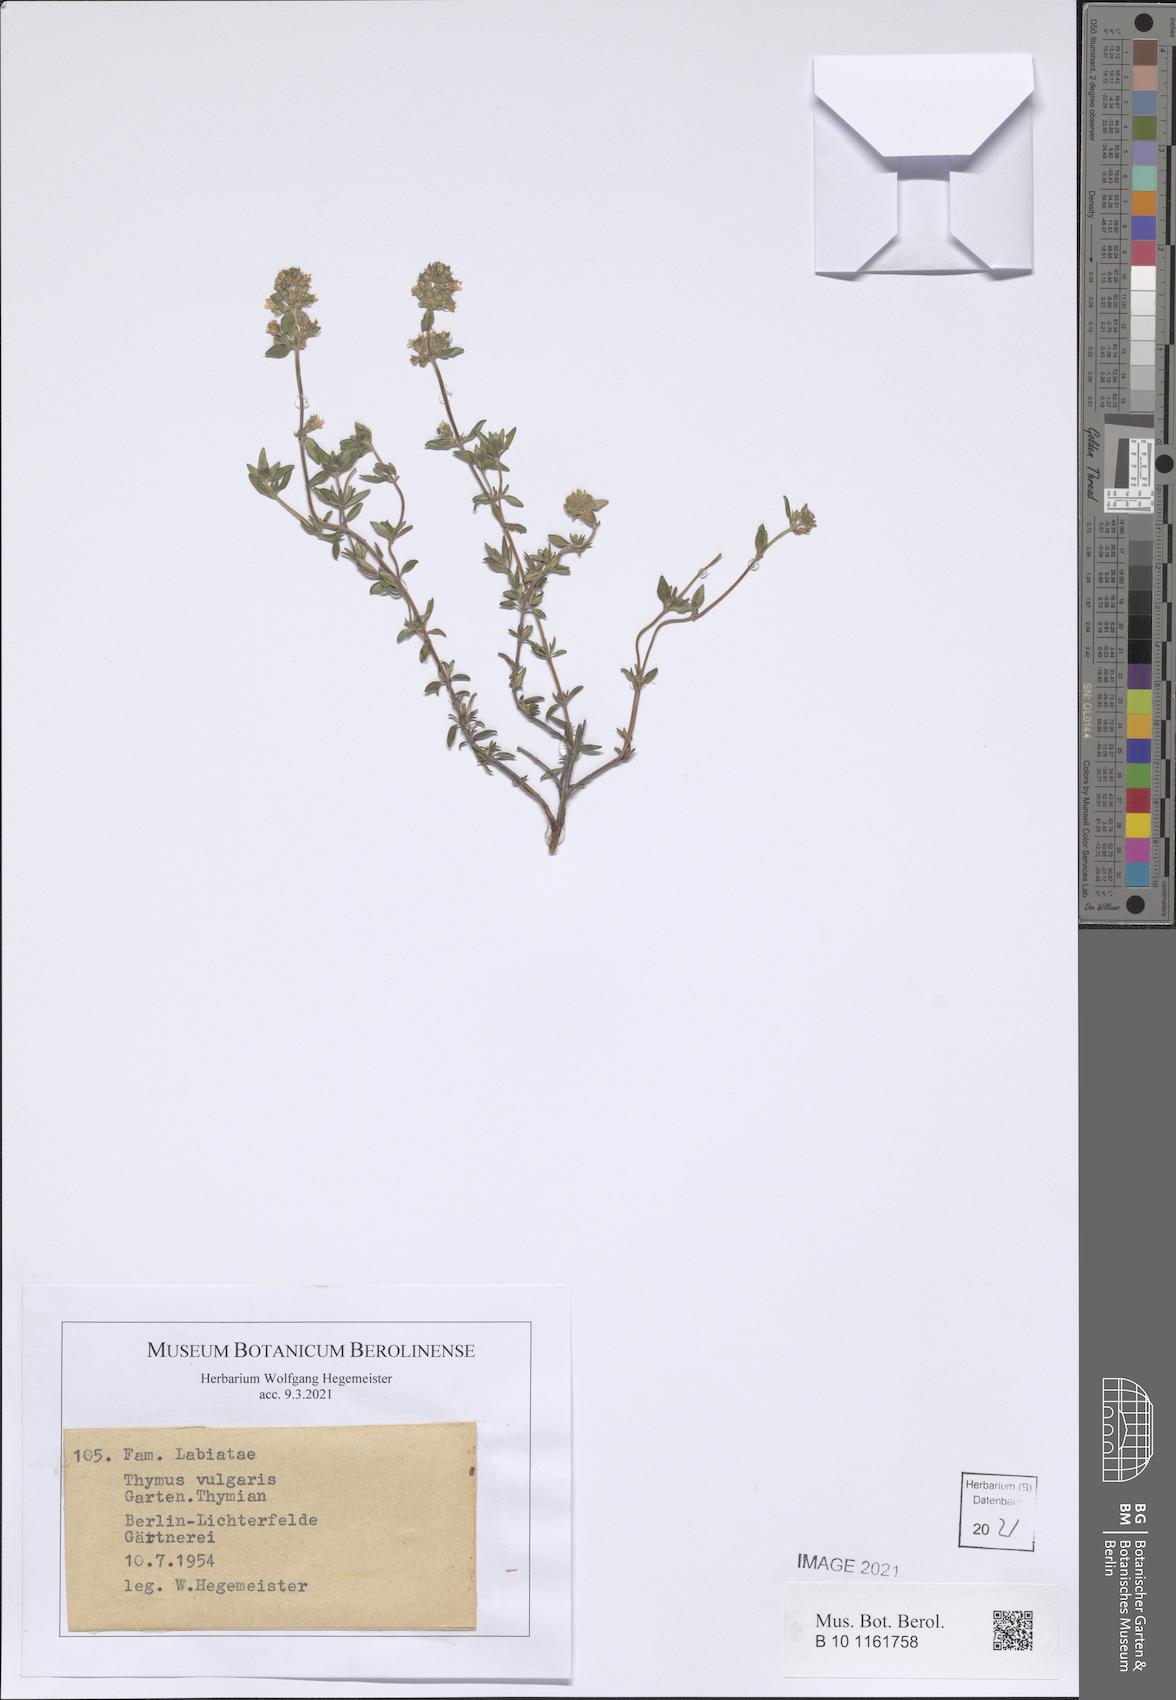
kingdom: Plantae
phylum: Tracheophyta
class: Magnoliopsida
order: Lamiales
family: Lamiaceae
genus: Thymus
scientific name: Thymus vulgaris
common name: Garden thyme
